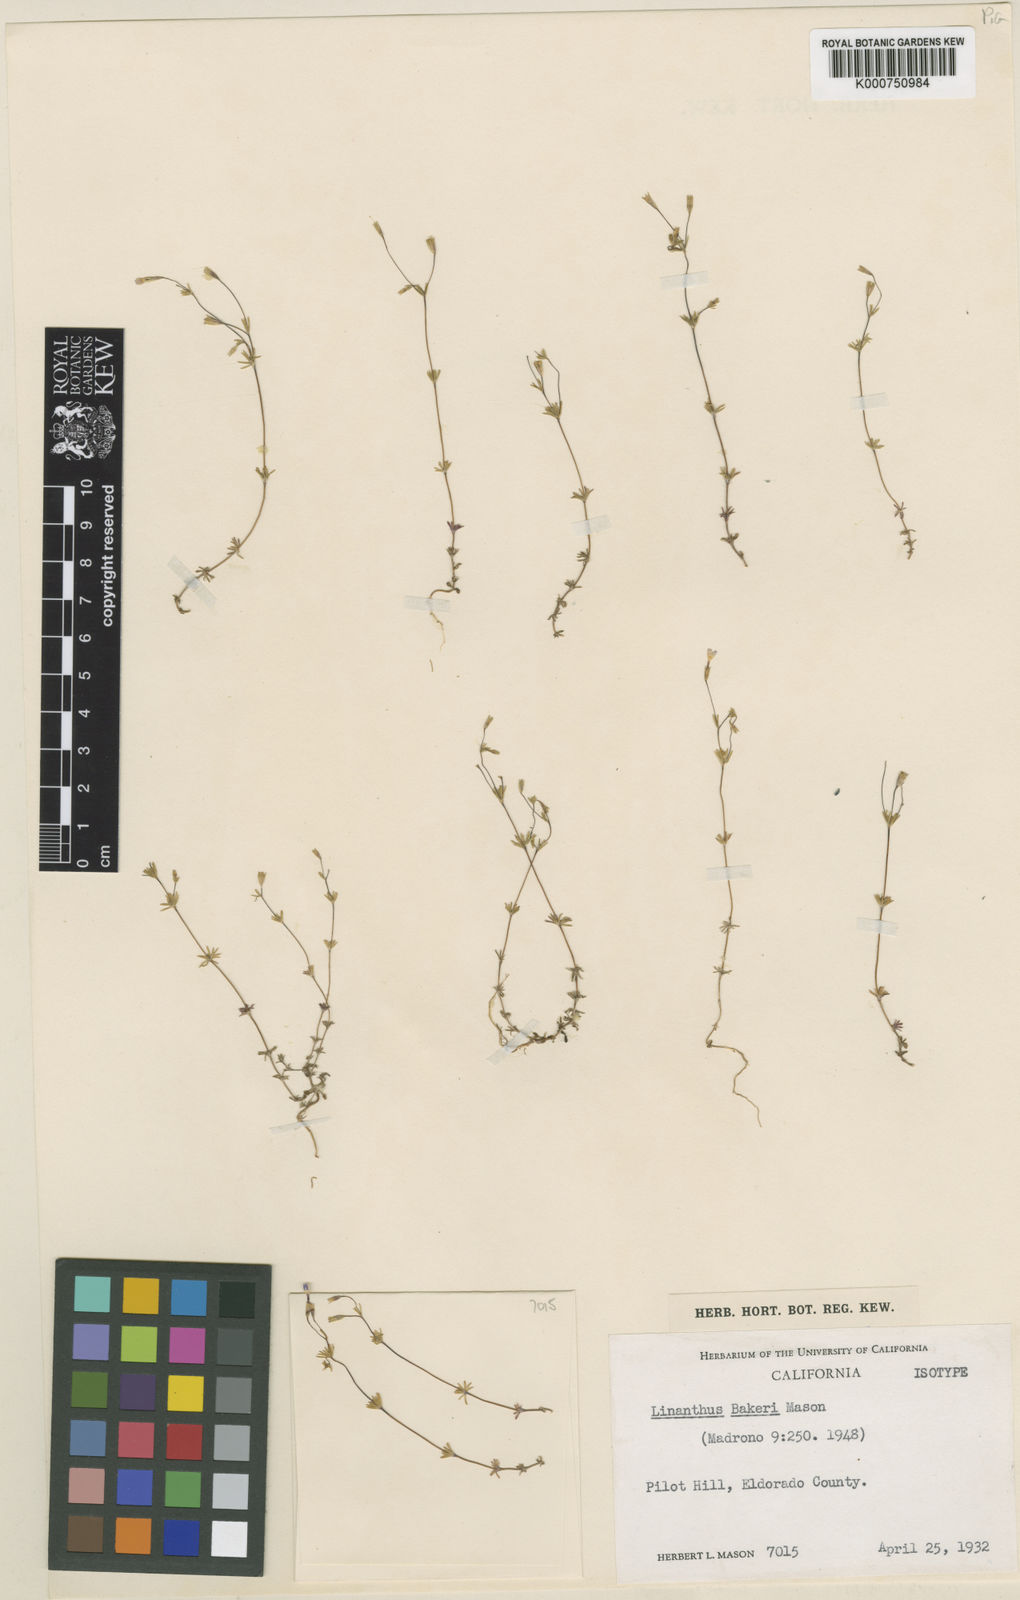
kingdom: Plantae
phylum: Tracheophyta
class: Magnoliopsida
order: Ericales
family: Polemoniaceae
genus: Leptosiphon
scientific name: Leptosiphon bolanderi
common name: Bolander's linanthus
